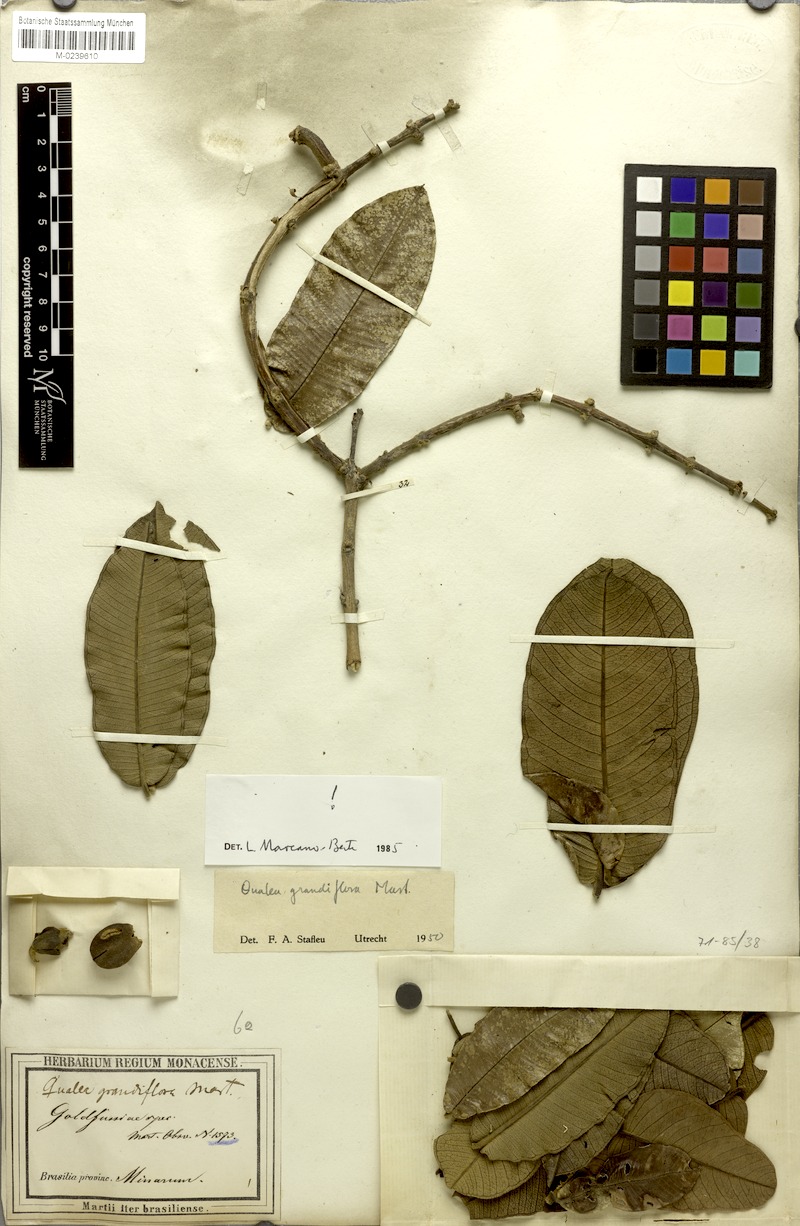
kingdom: Plantae
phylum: Tracheophyta
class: Magnoliopsida
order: Myrtales
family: Vochysiaceae
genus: Qualea
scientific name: Qualea grandiflora
